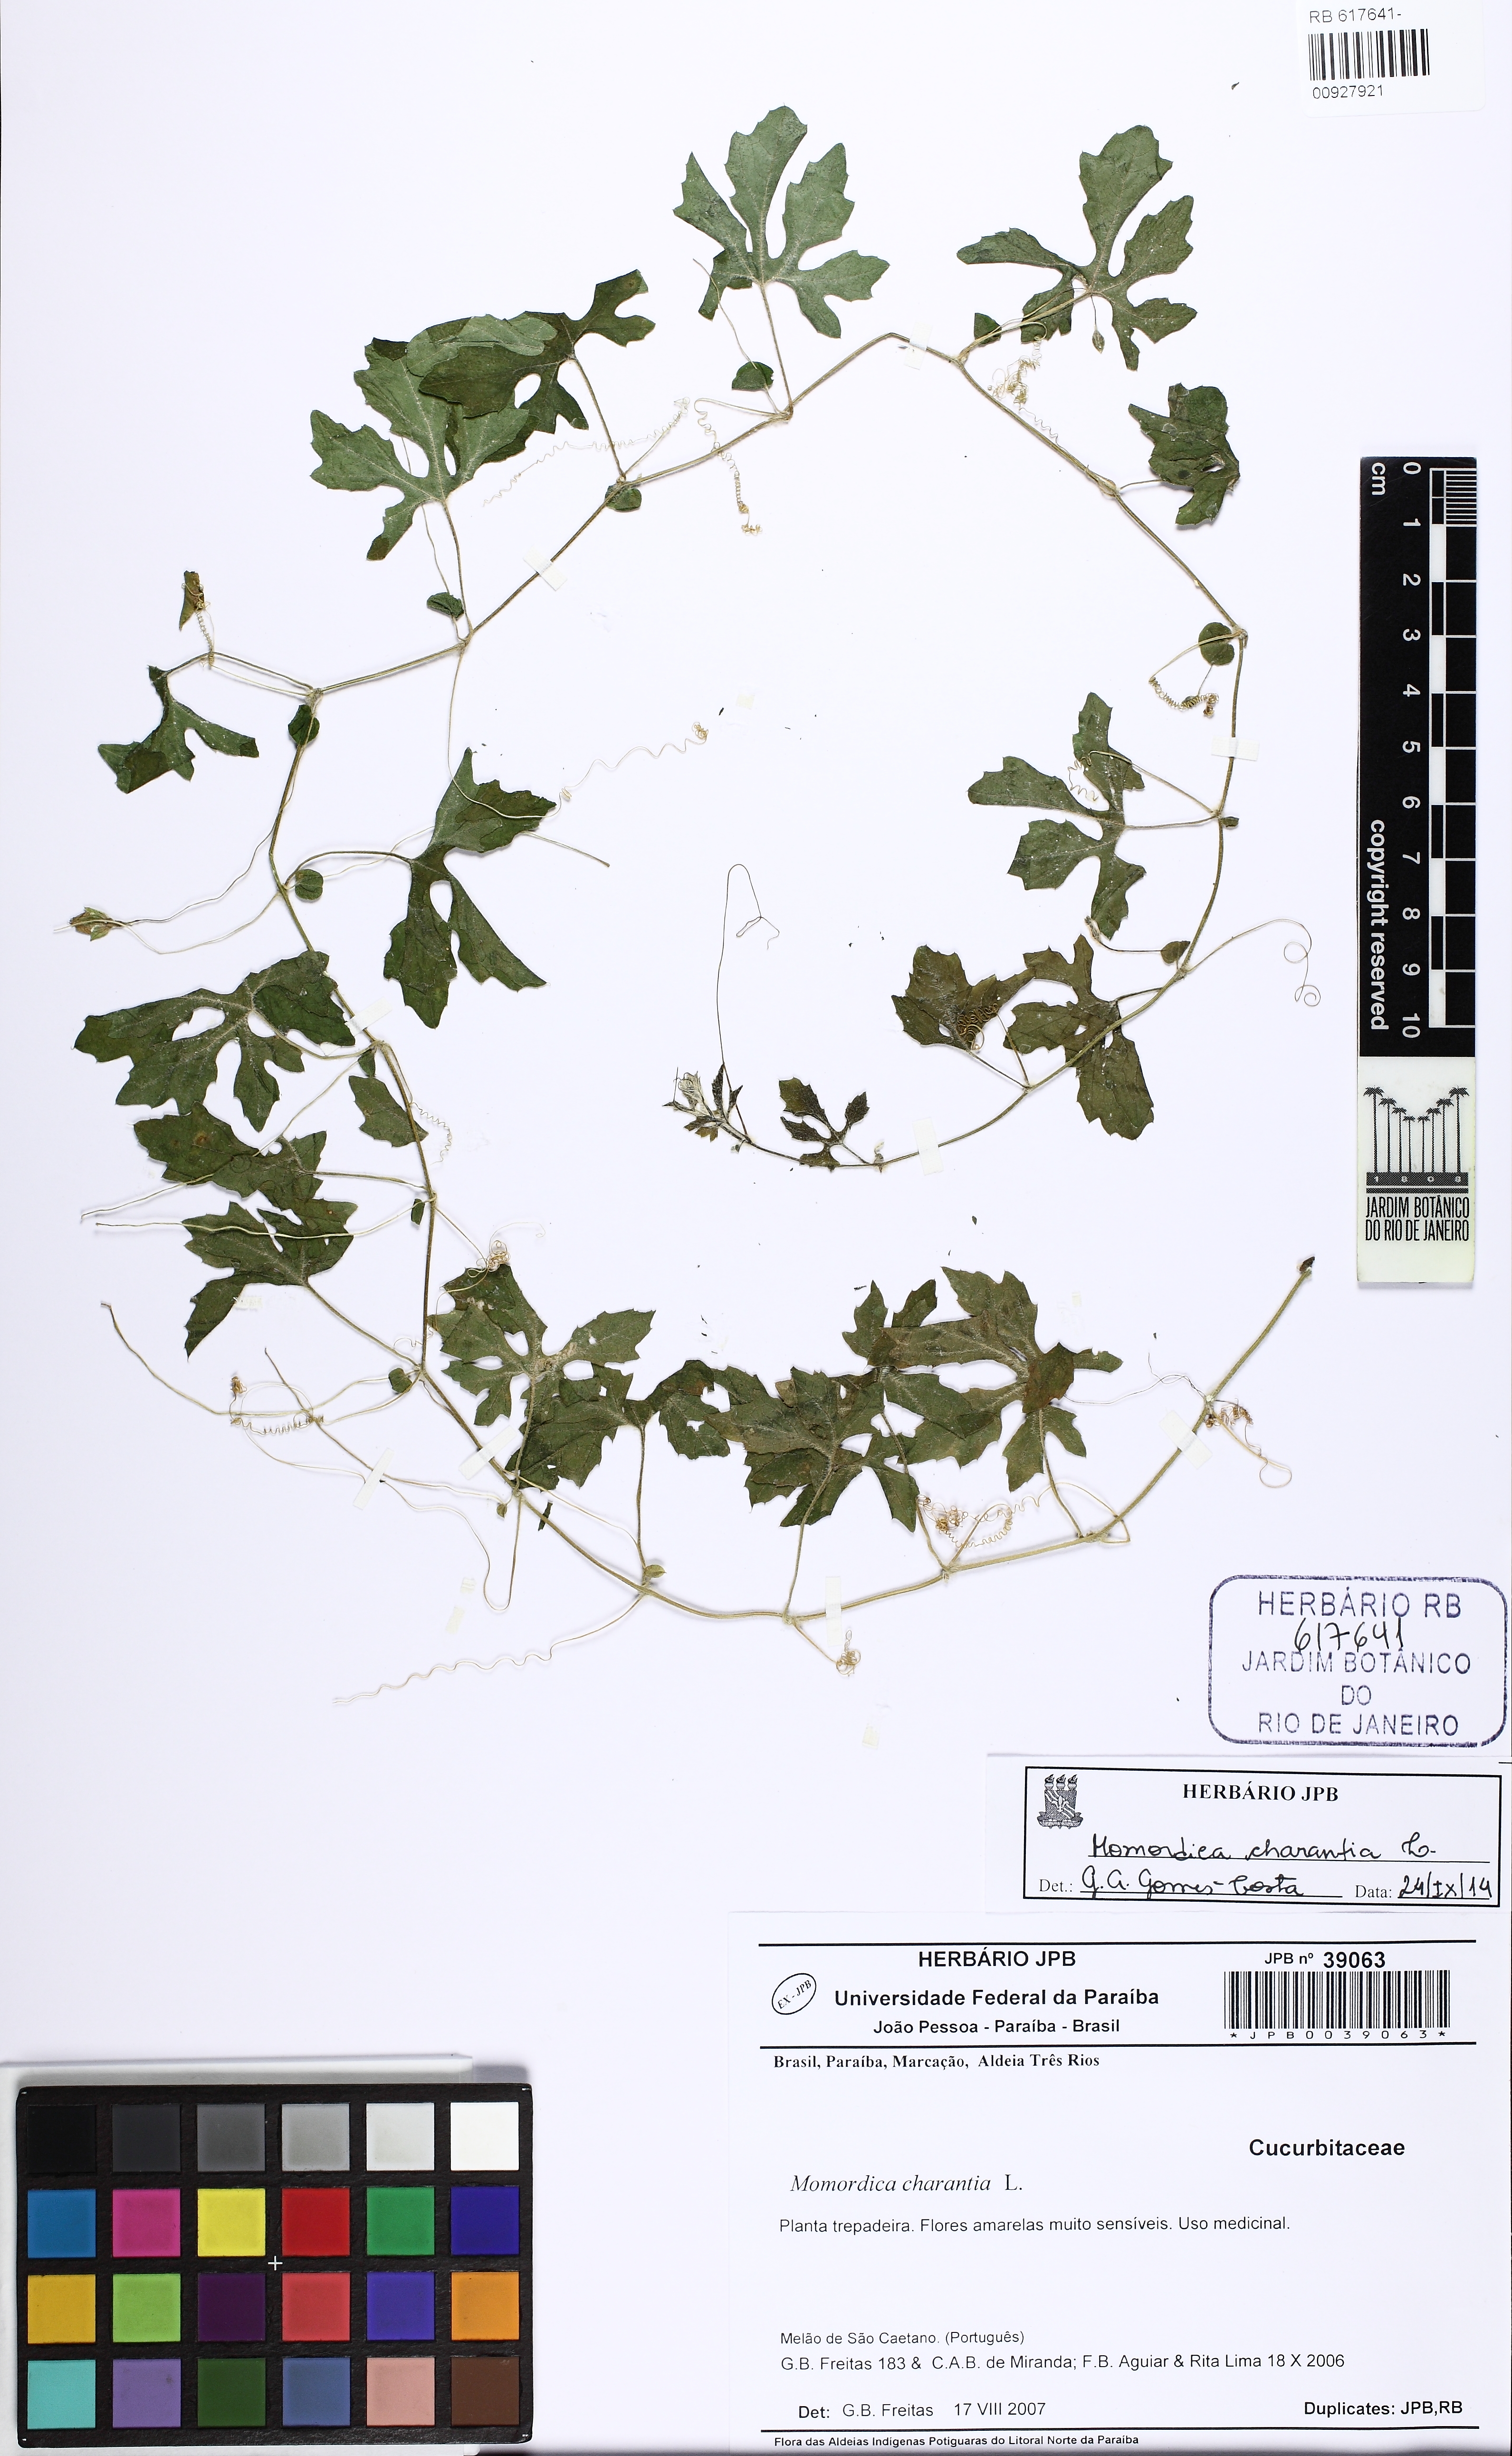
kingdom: Plantae
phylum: Tracheophyta
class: Magnoliopsida
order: Cucurbitales
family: Cucurbitaceae
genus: Momordica
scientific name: Momordica charantia
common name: Balsampear
